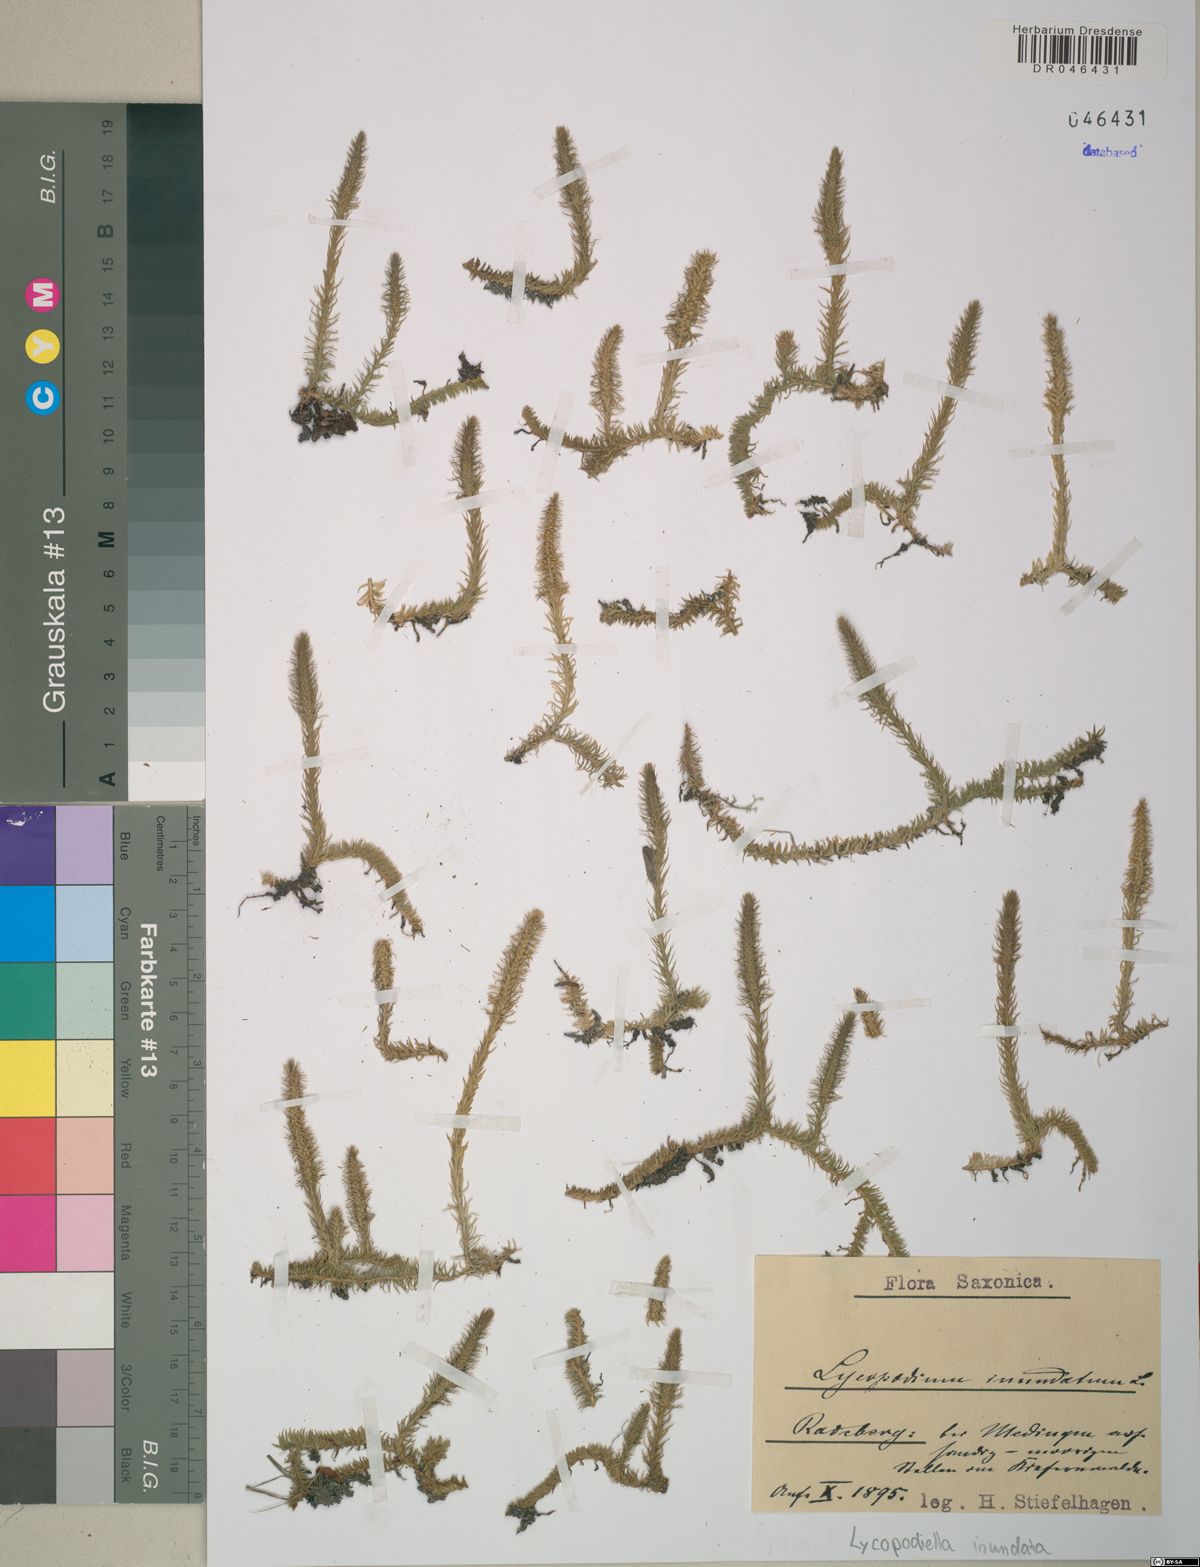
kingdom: Plantae
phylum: Tracheophyta
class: Lycopodiopsida
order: Lycopodiales
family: Lycopodiaceae
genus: Lycopodiella
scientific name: Lycopodiella inundata
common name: Marsh clubmoss
